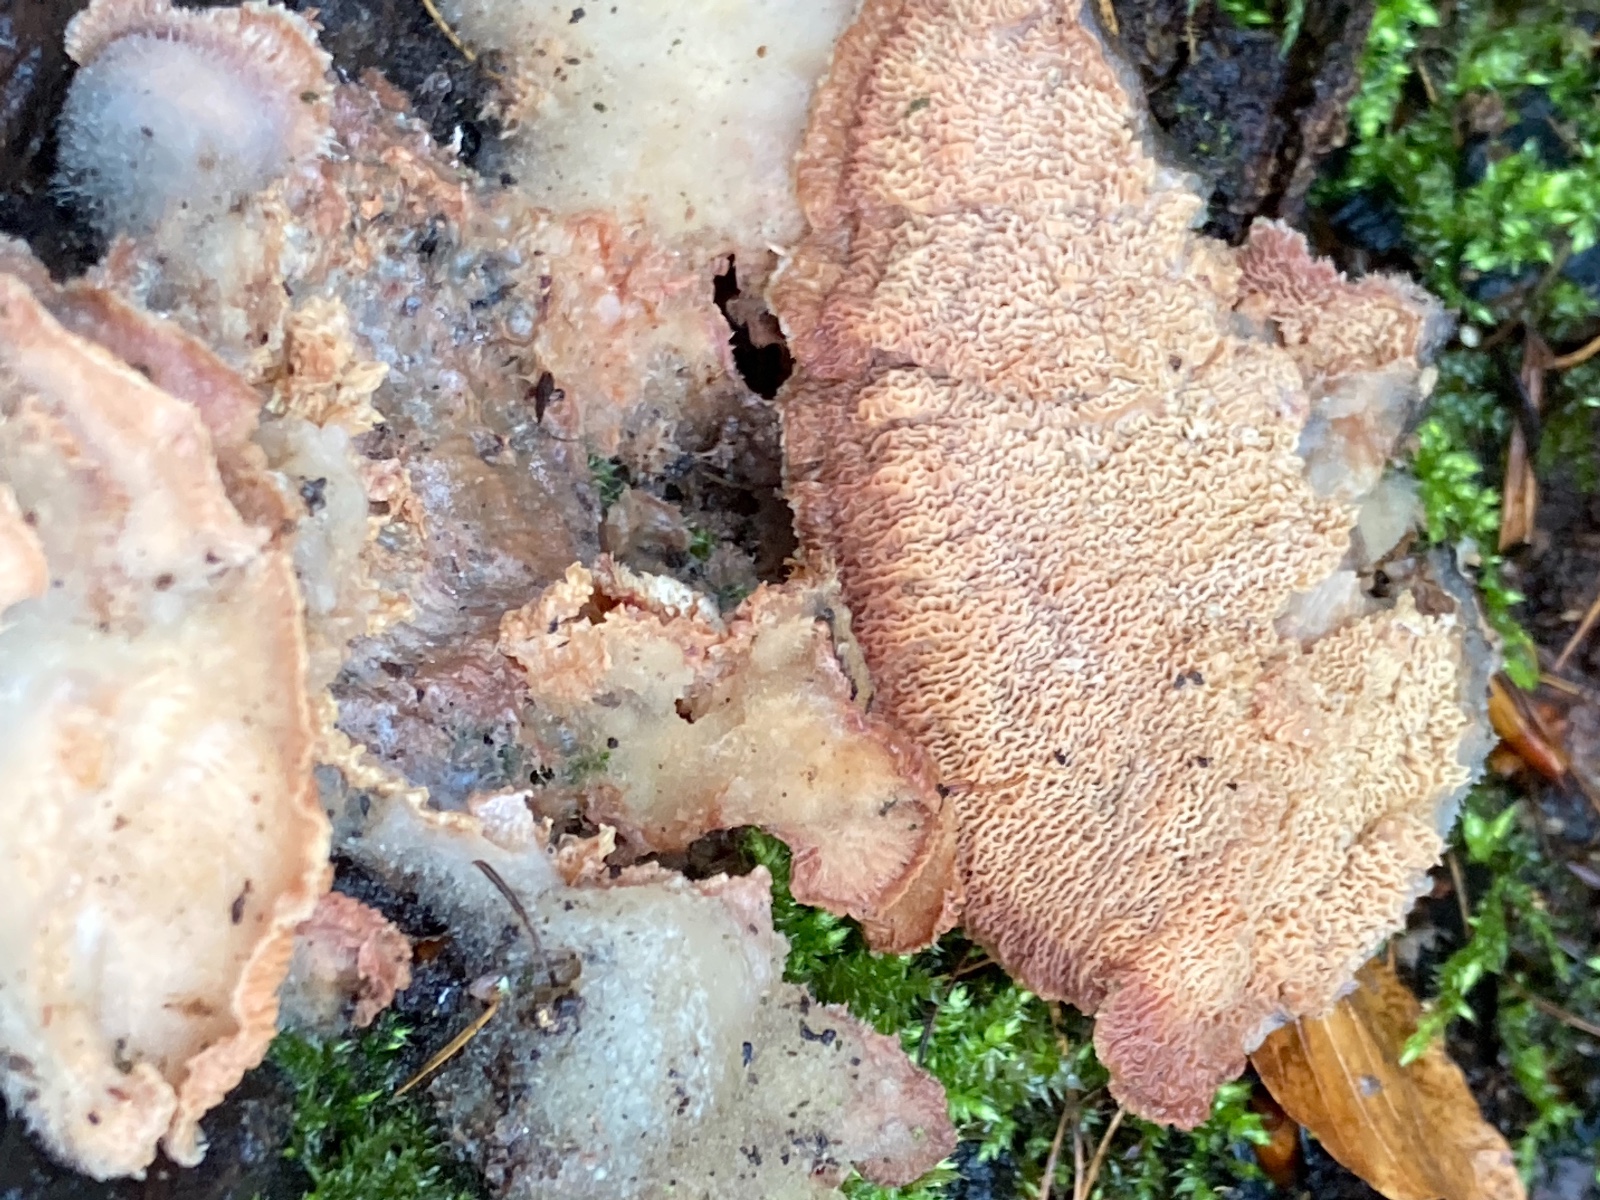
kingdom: Fungi
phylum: Basidiomycota
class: Agaricomycetes
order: Polyporales
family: Meruliaceae
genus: Phlebia
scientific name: Phlebia tremellosa
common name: bævrende åresvamp
